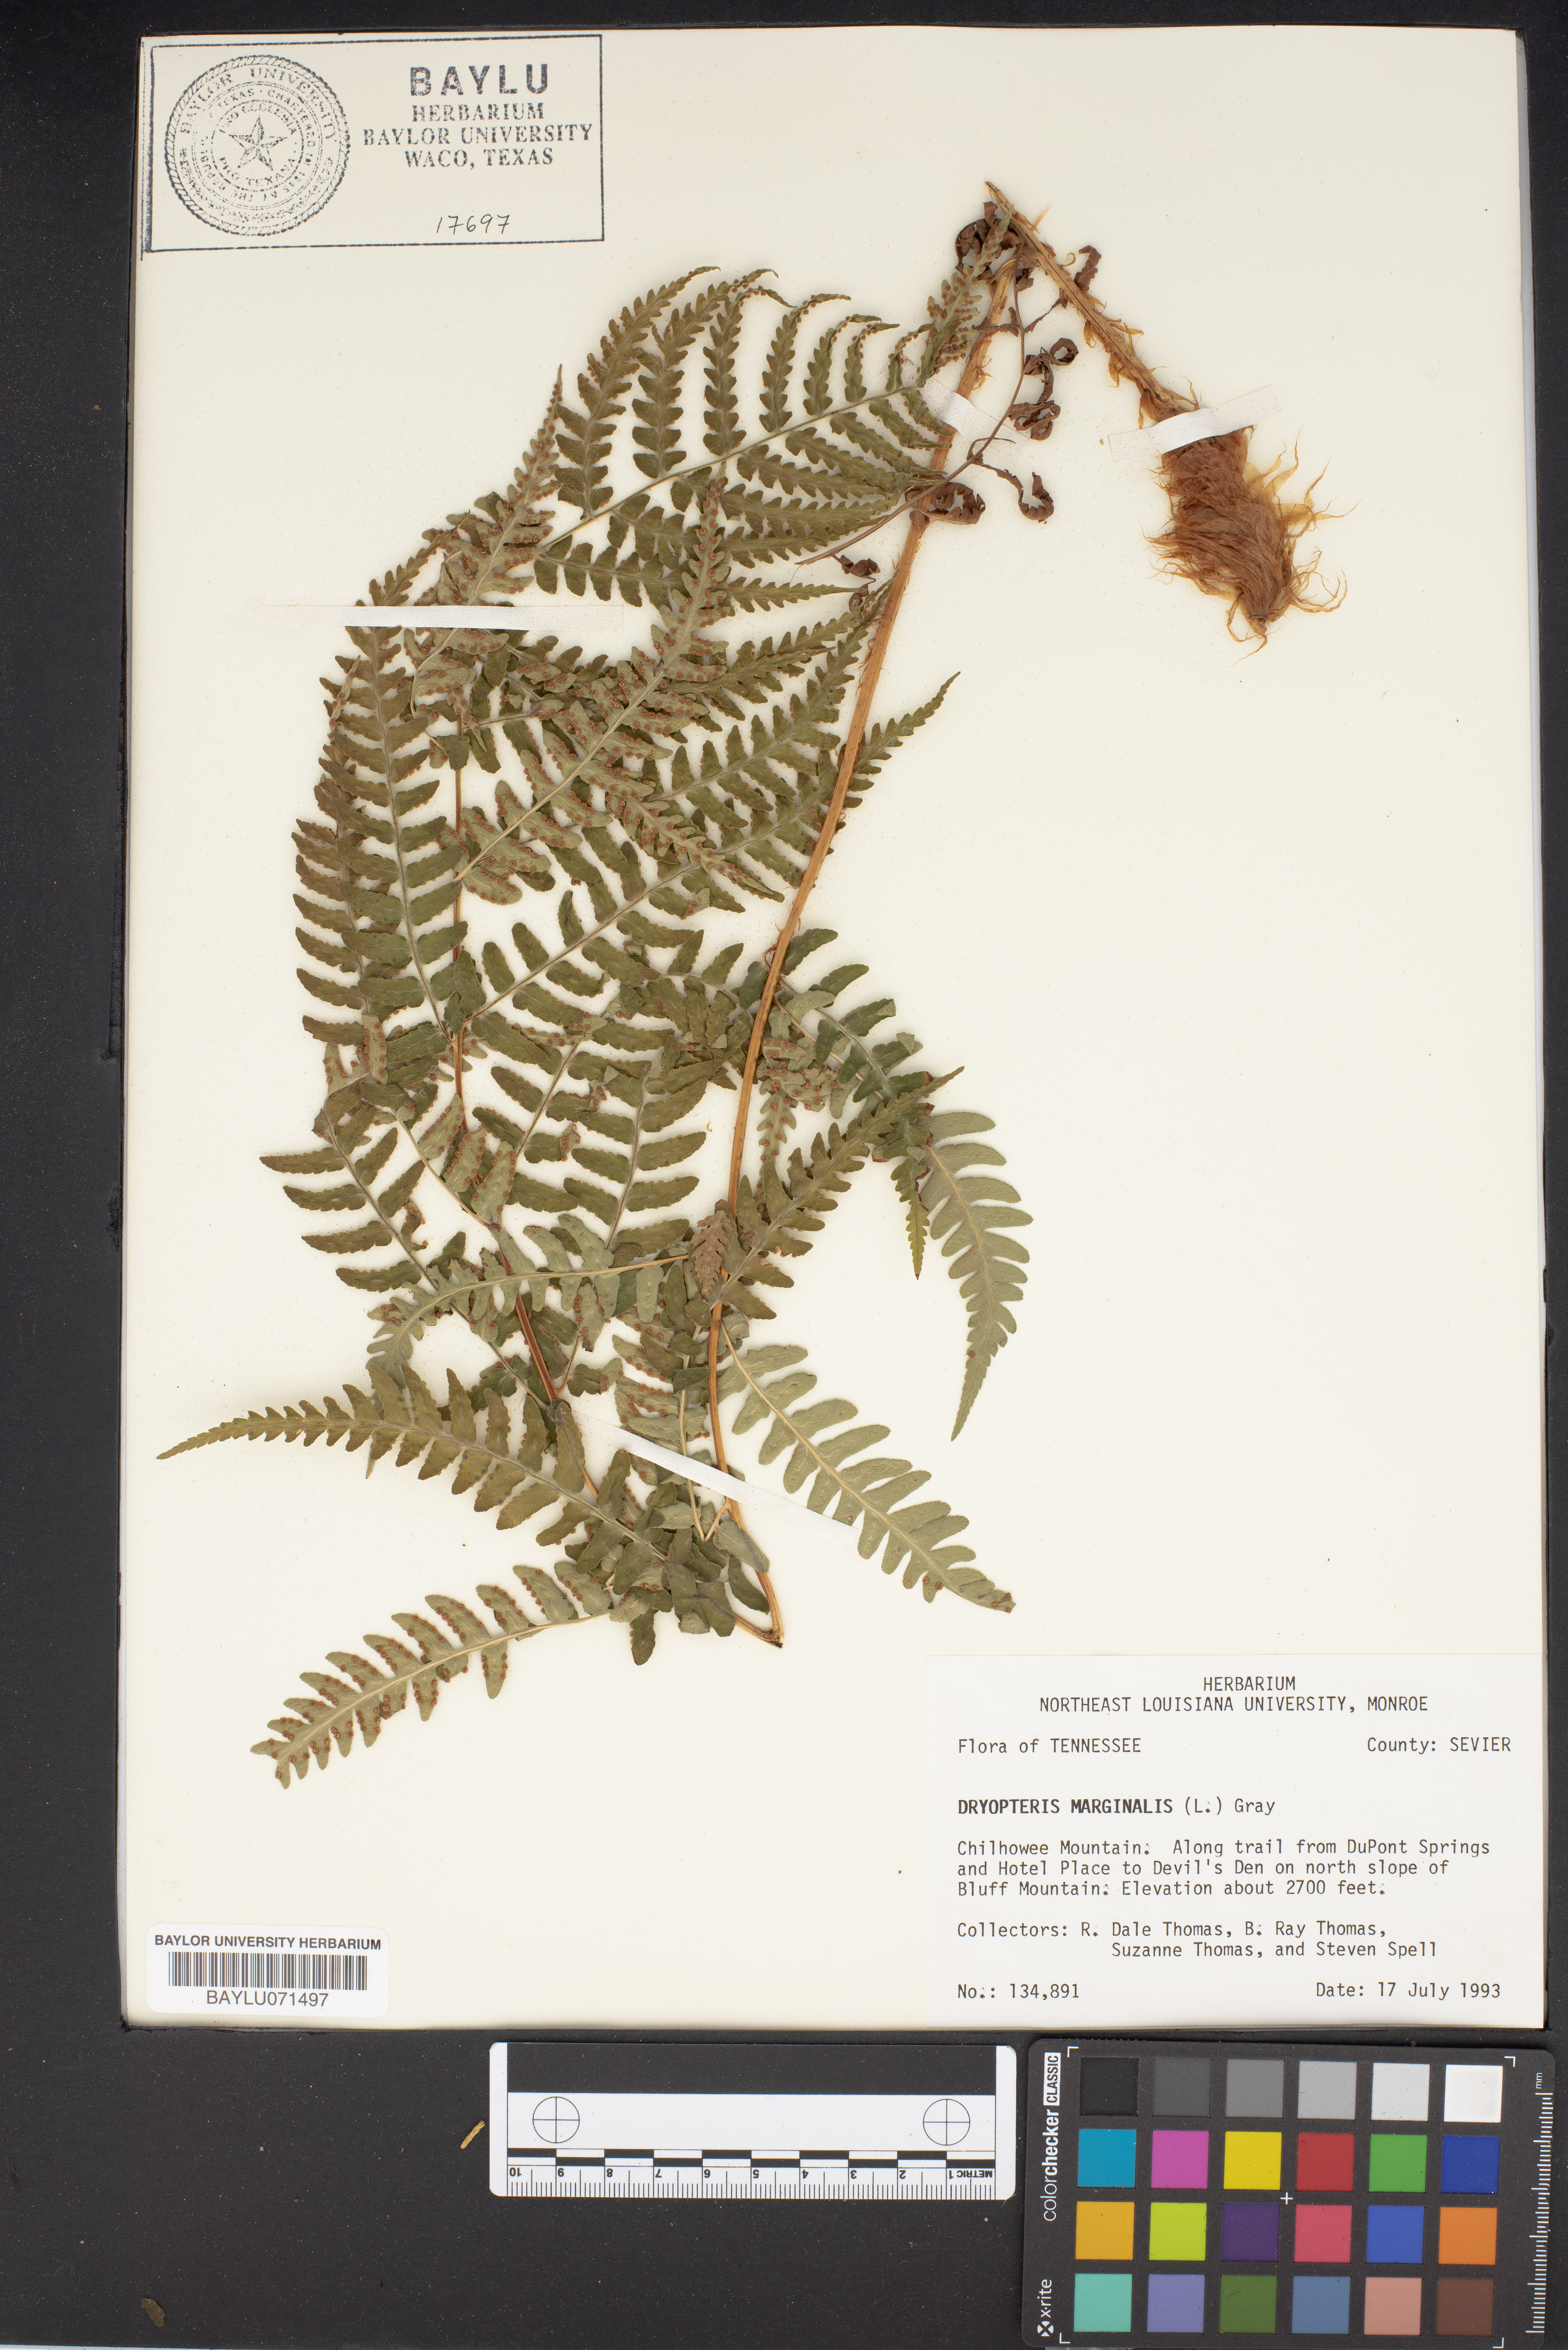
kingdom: Plantae
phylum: Tracheophyta
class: Polypodiopsida
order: Polypodiales
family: Dryopteridaceae
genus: Dryopteris
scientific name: Dryopteris marginalis
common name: Marginal wood fern
